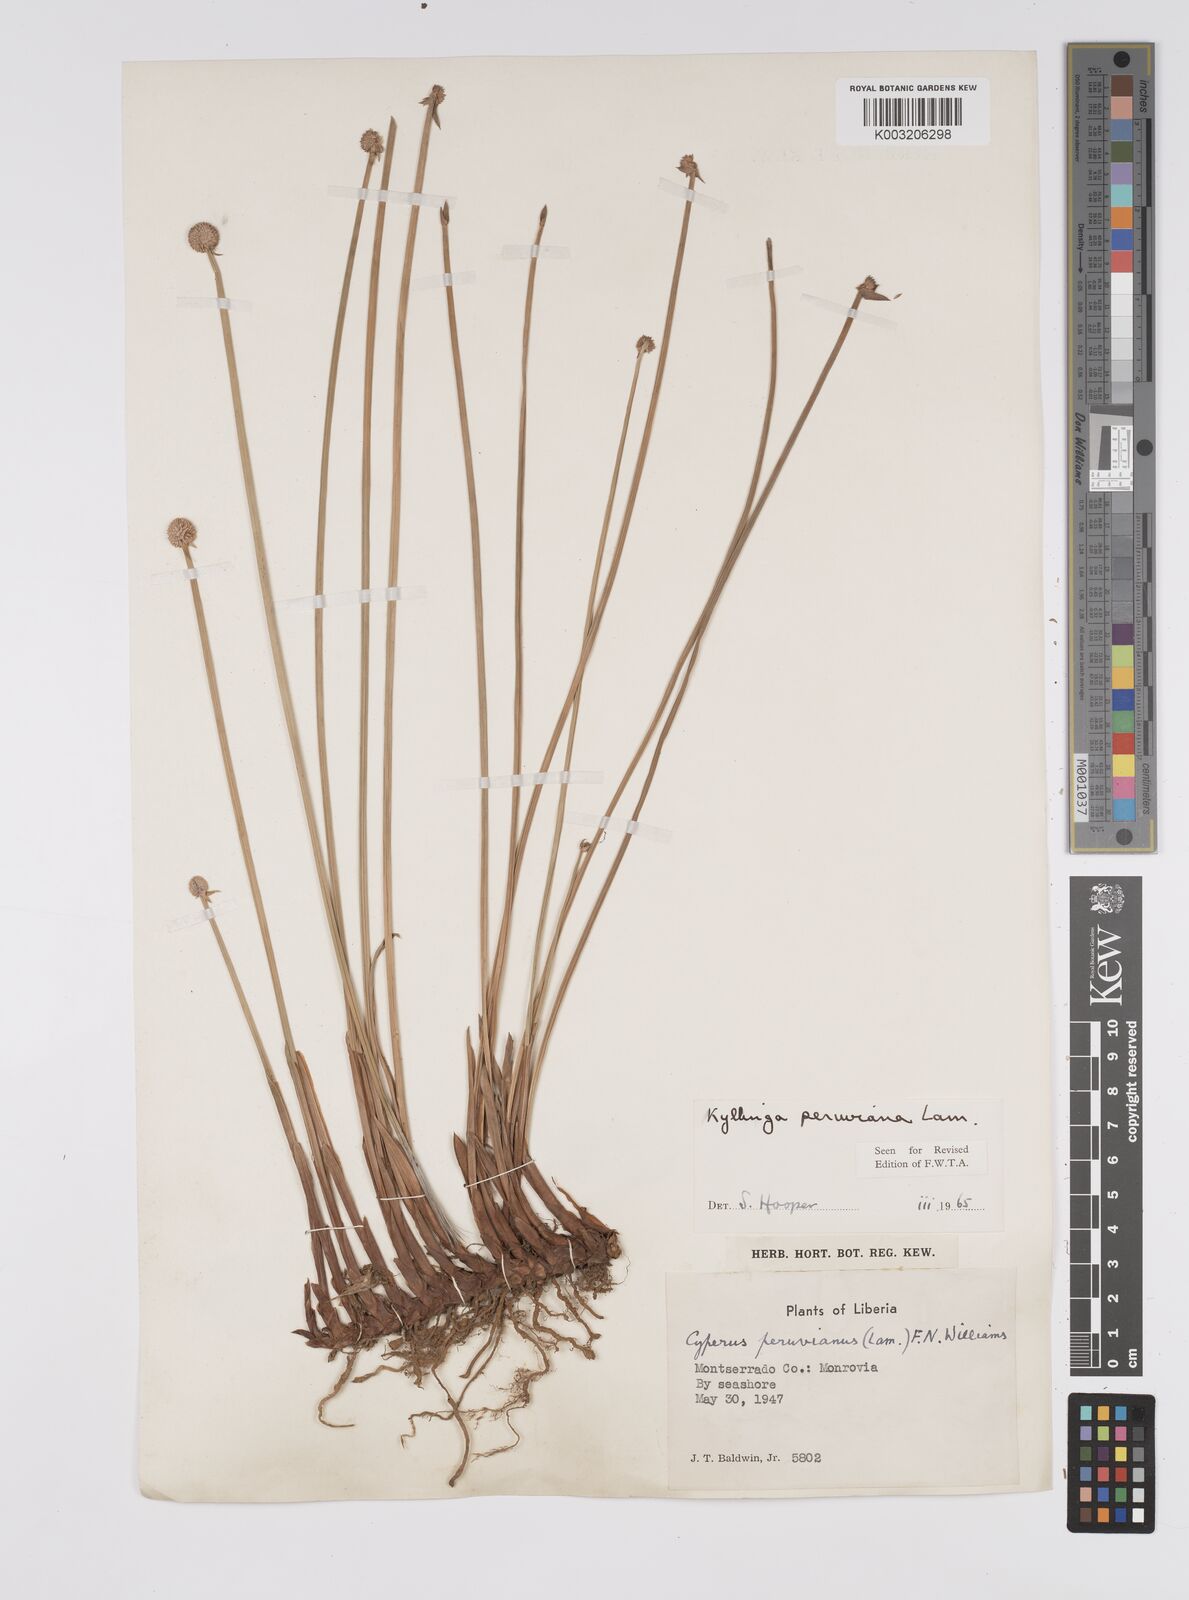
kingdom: Plantae
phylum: Tracheophyta
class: Liliopsida
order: Poales
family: Cyperaceae
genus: Cyperus
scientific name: Cyperus obtusatus
